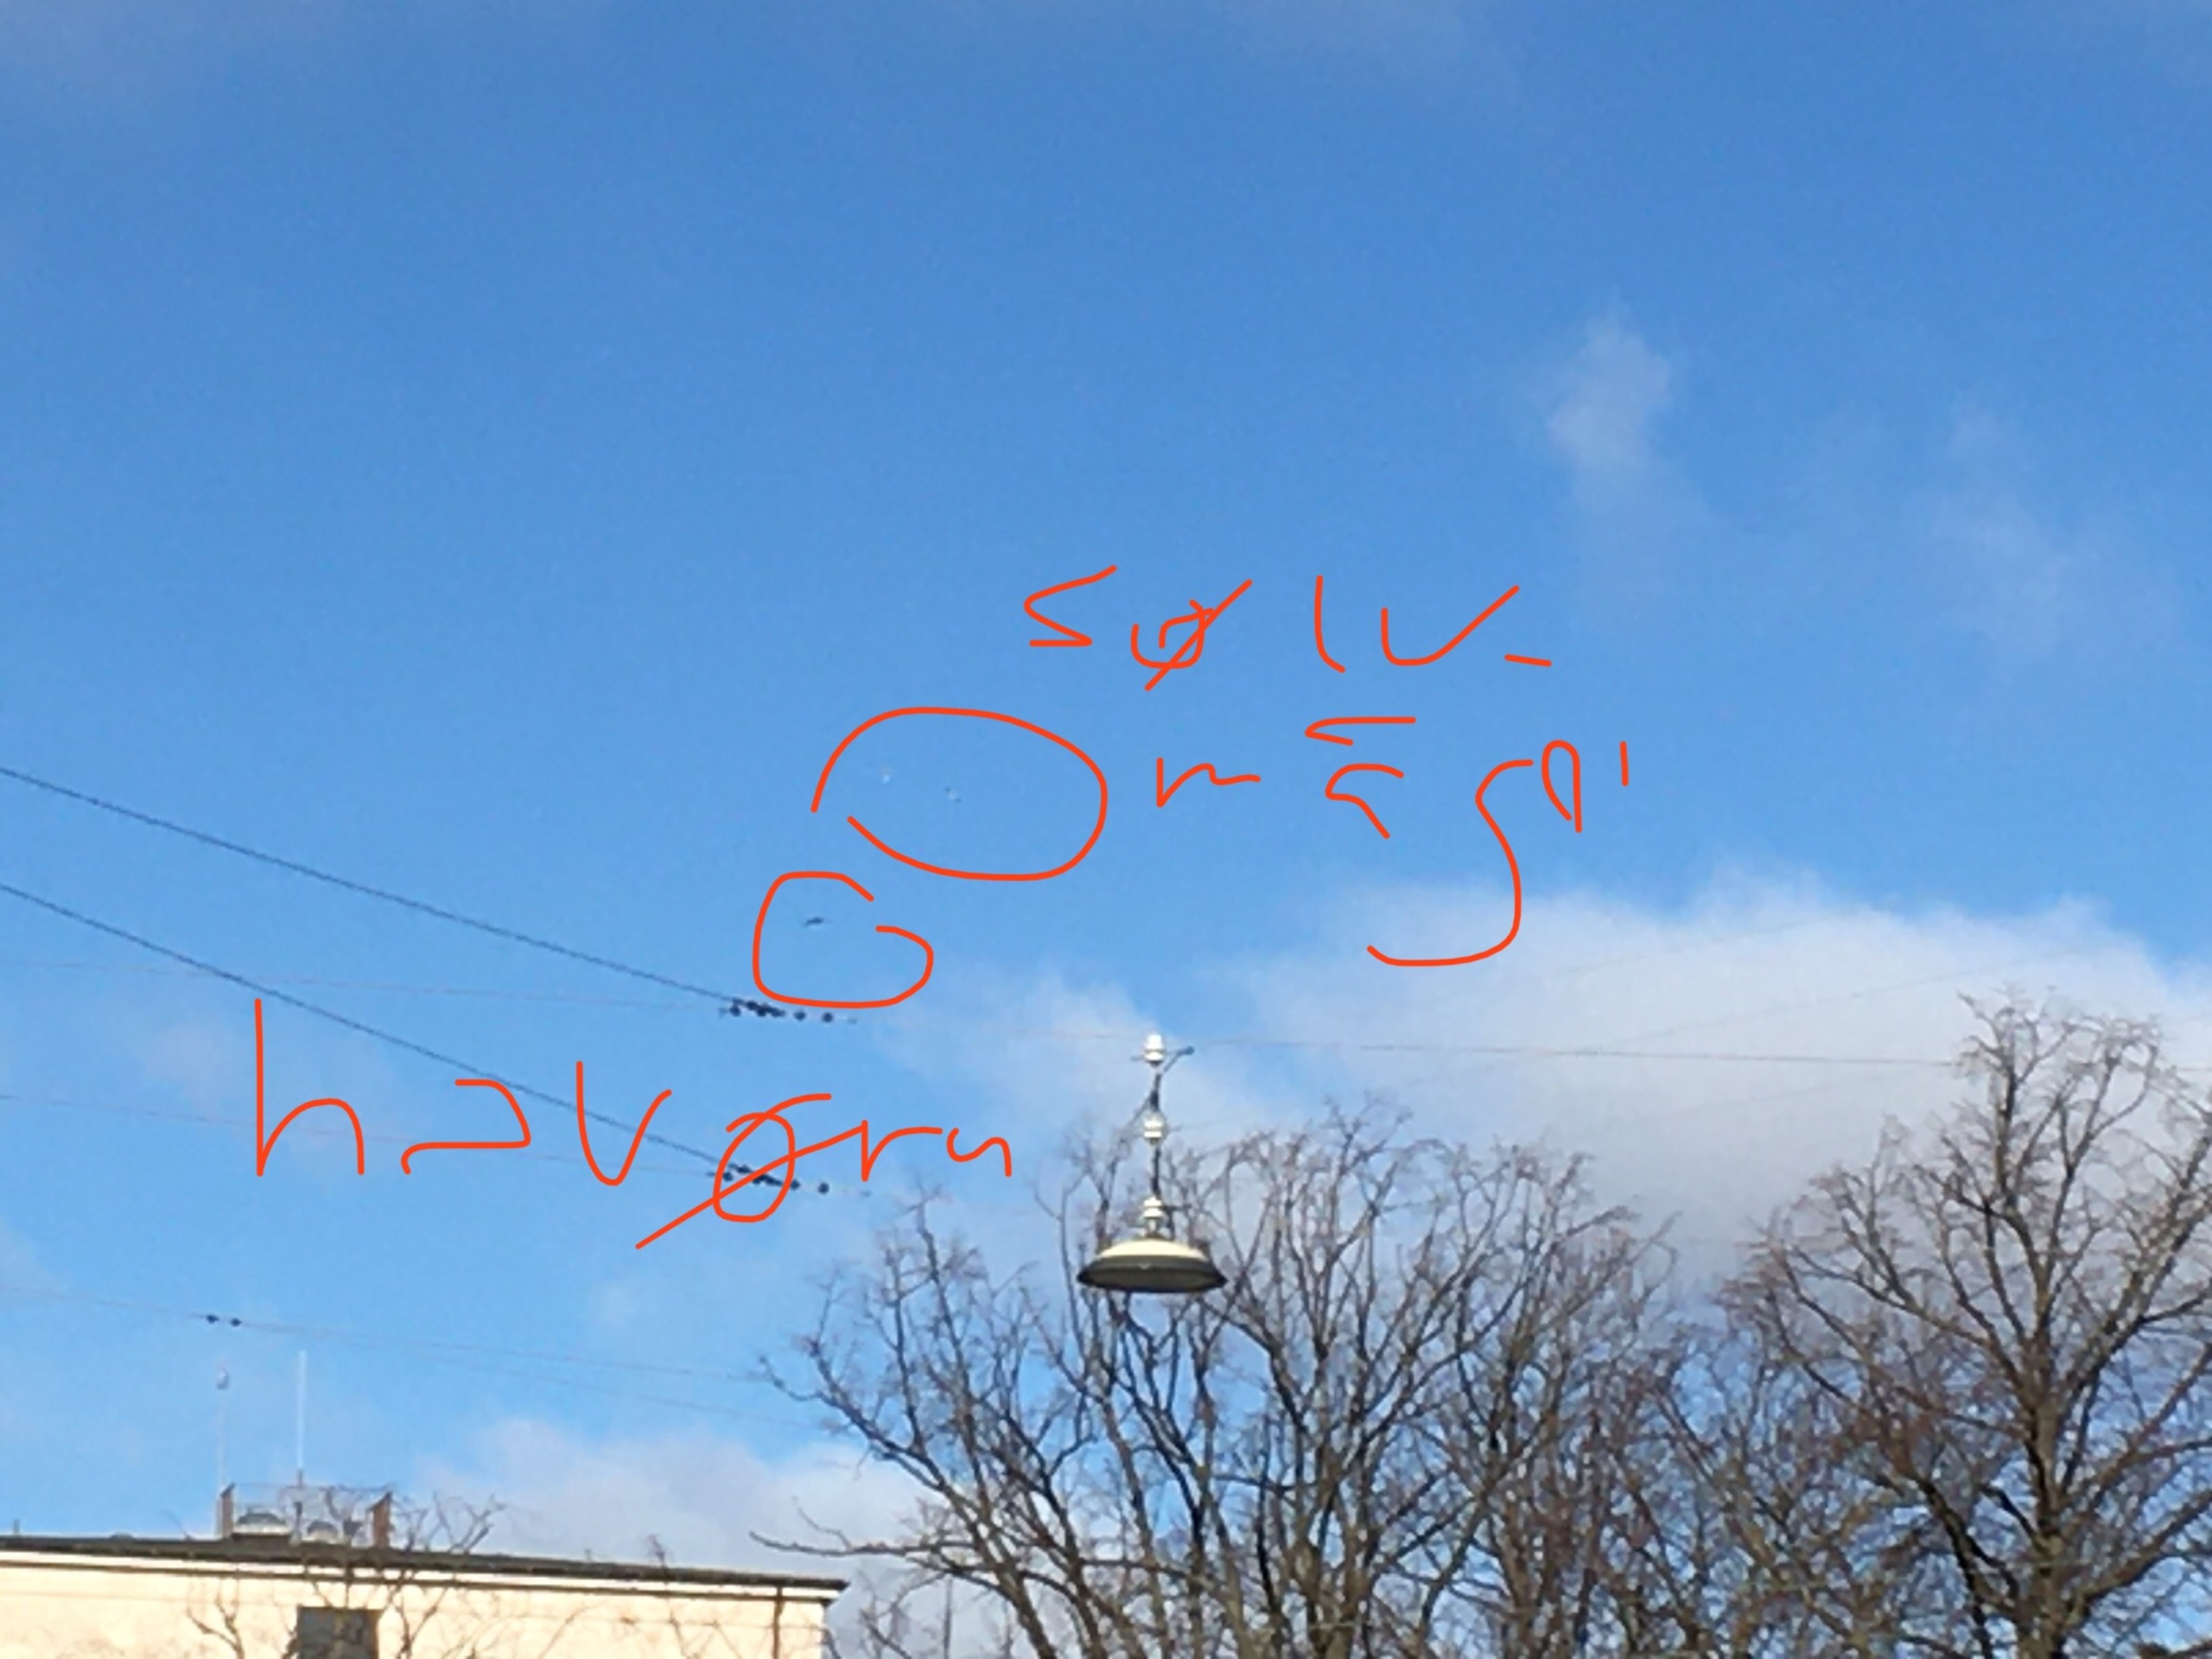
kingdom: Animalia
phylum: Chordata
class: Aves
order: Accipitriformes
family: Accipitridae
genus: Haliaeetus
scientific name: Haliaeetus albicilla
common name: Havørn
